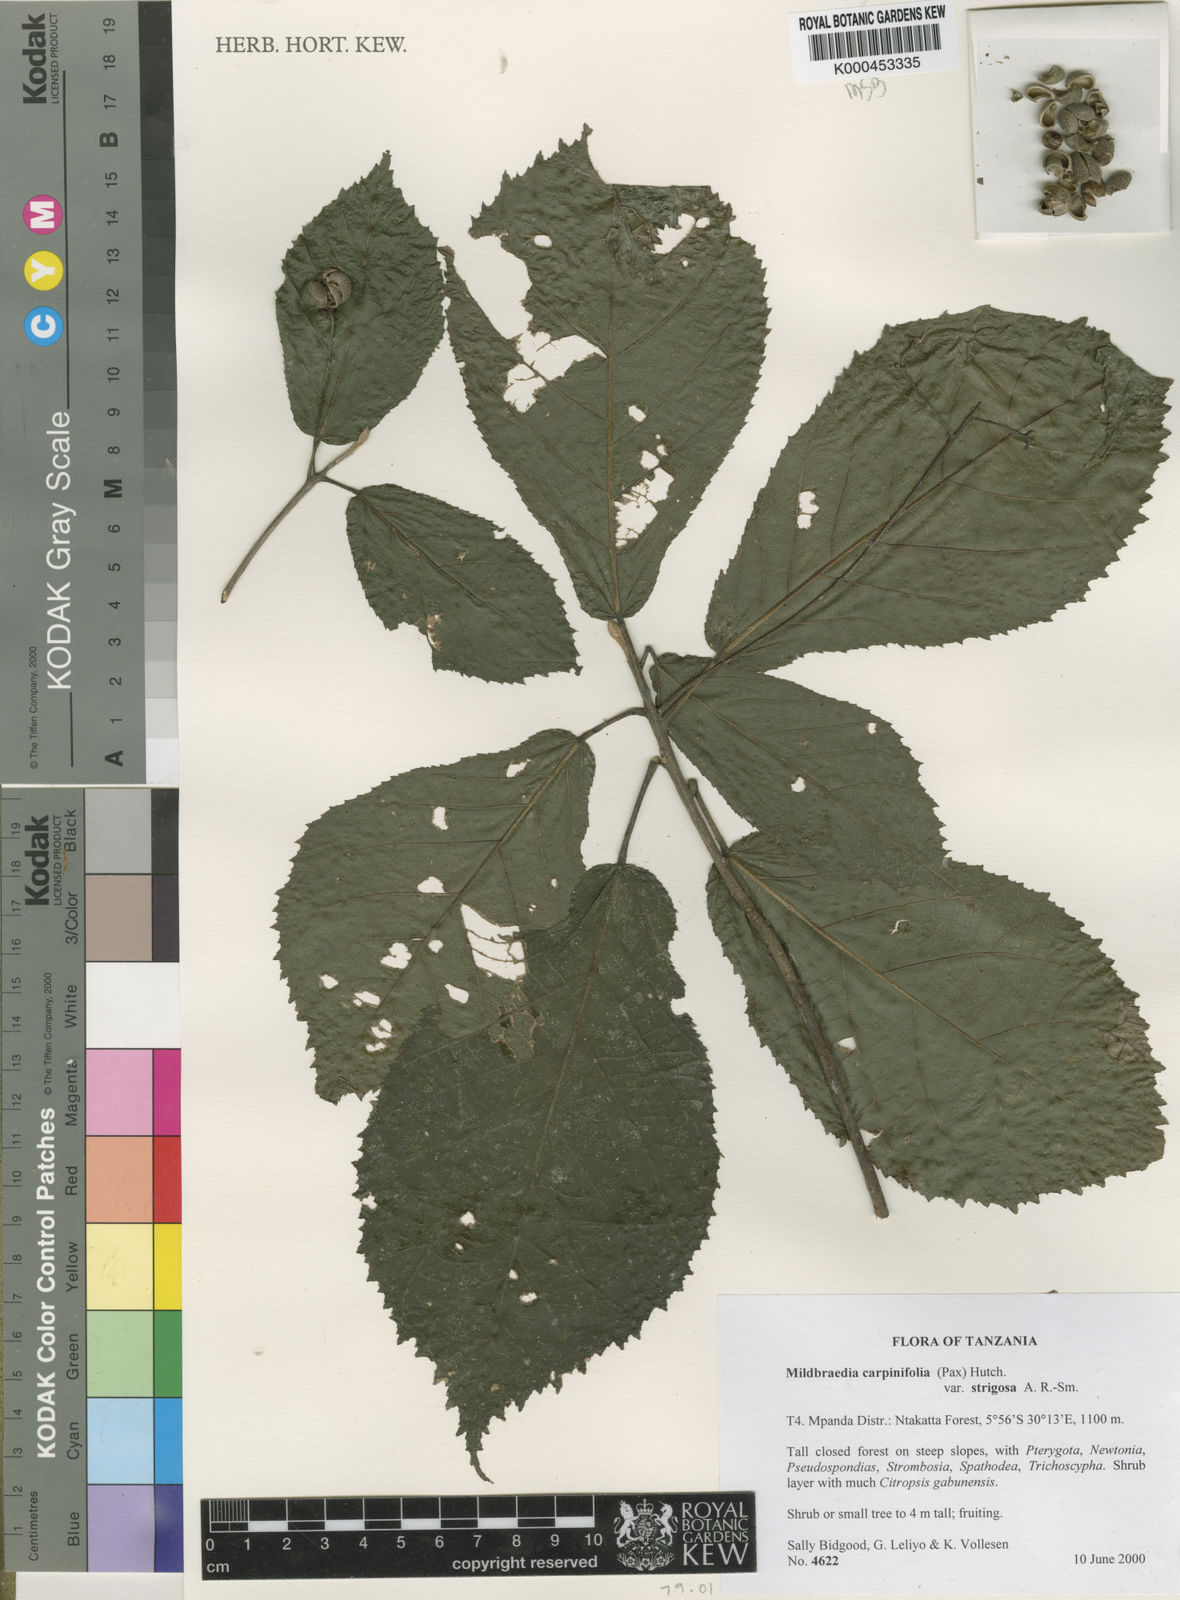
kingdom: Plantae
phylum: Tracheophyta
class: Magnoliopsida
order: Malpighiales
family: Euphorbiaceae
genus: Mildbraedia
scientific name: Mildbraedia carpinifolia
